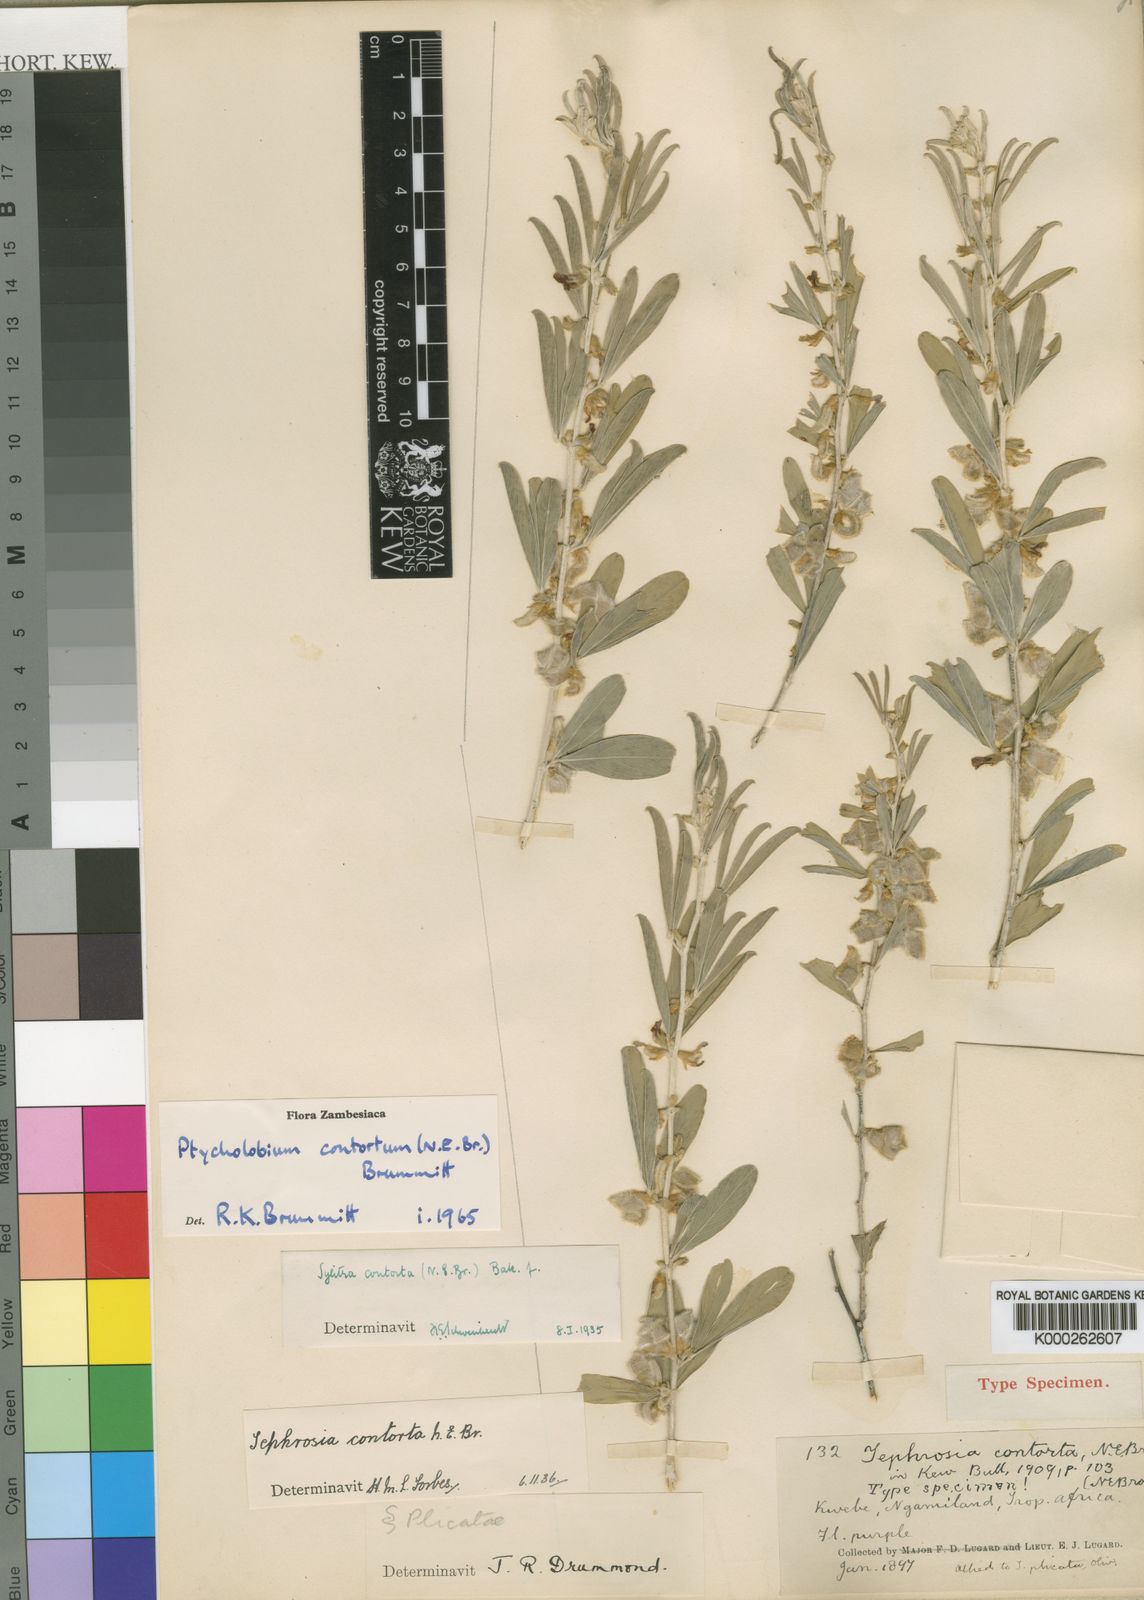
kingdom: Plantae
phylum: Tracheophyta
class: Magnoliopsida
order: Fabales
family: Fabaceae
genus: Ptycholobium
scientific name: Ptycholobium contortum
